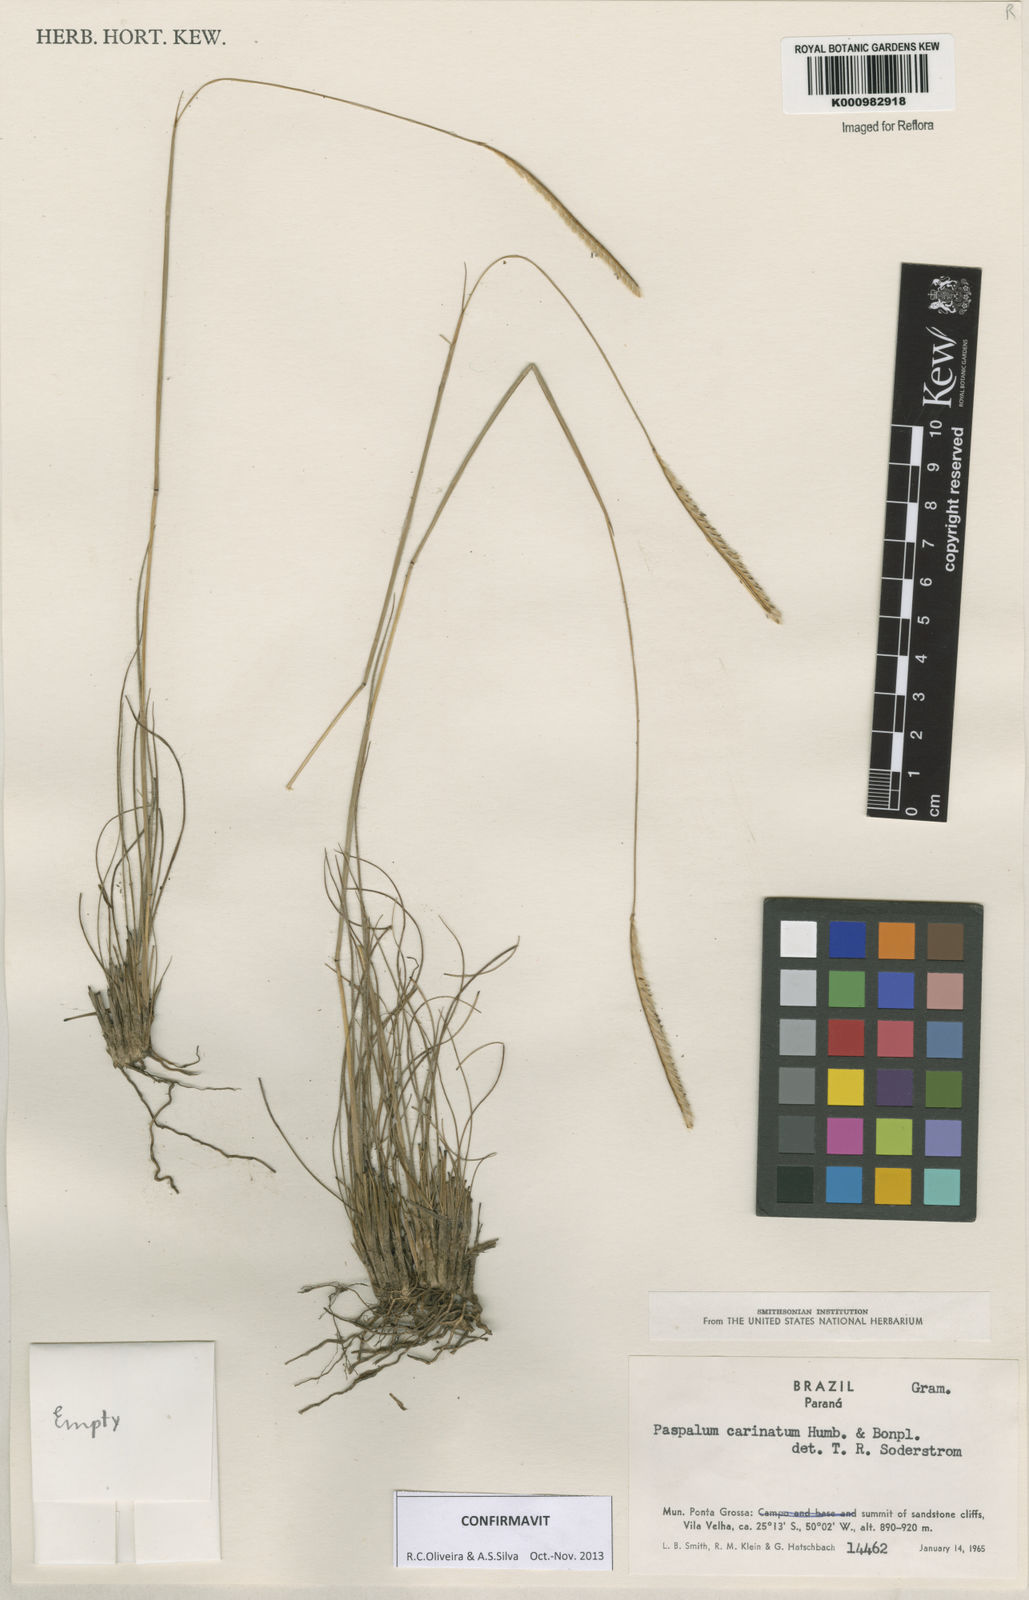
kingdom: Plantae
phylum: Tracheophyta
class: Liliopsida
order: Poales
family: Poaceae
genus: Paspalum
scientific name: Paspalum
